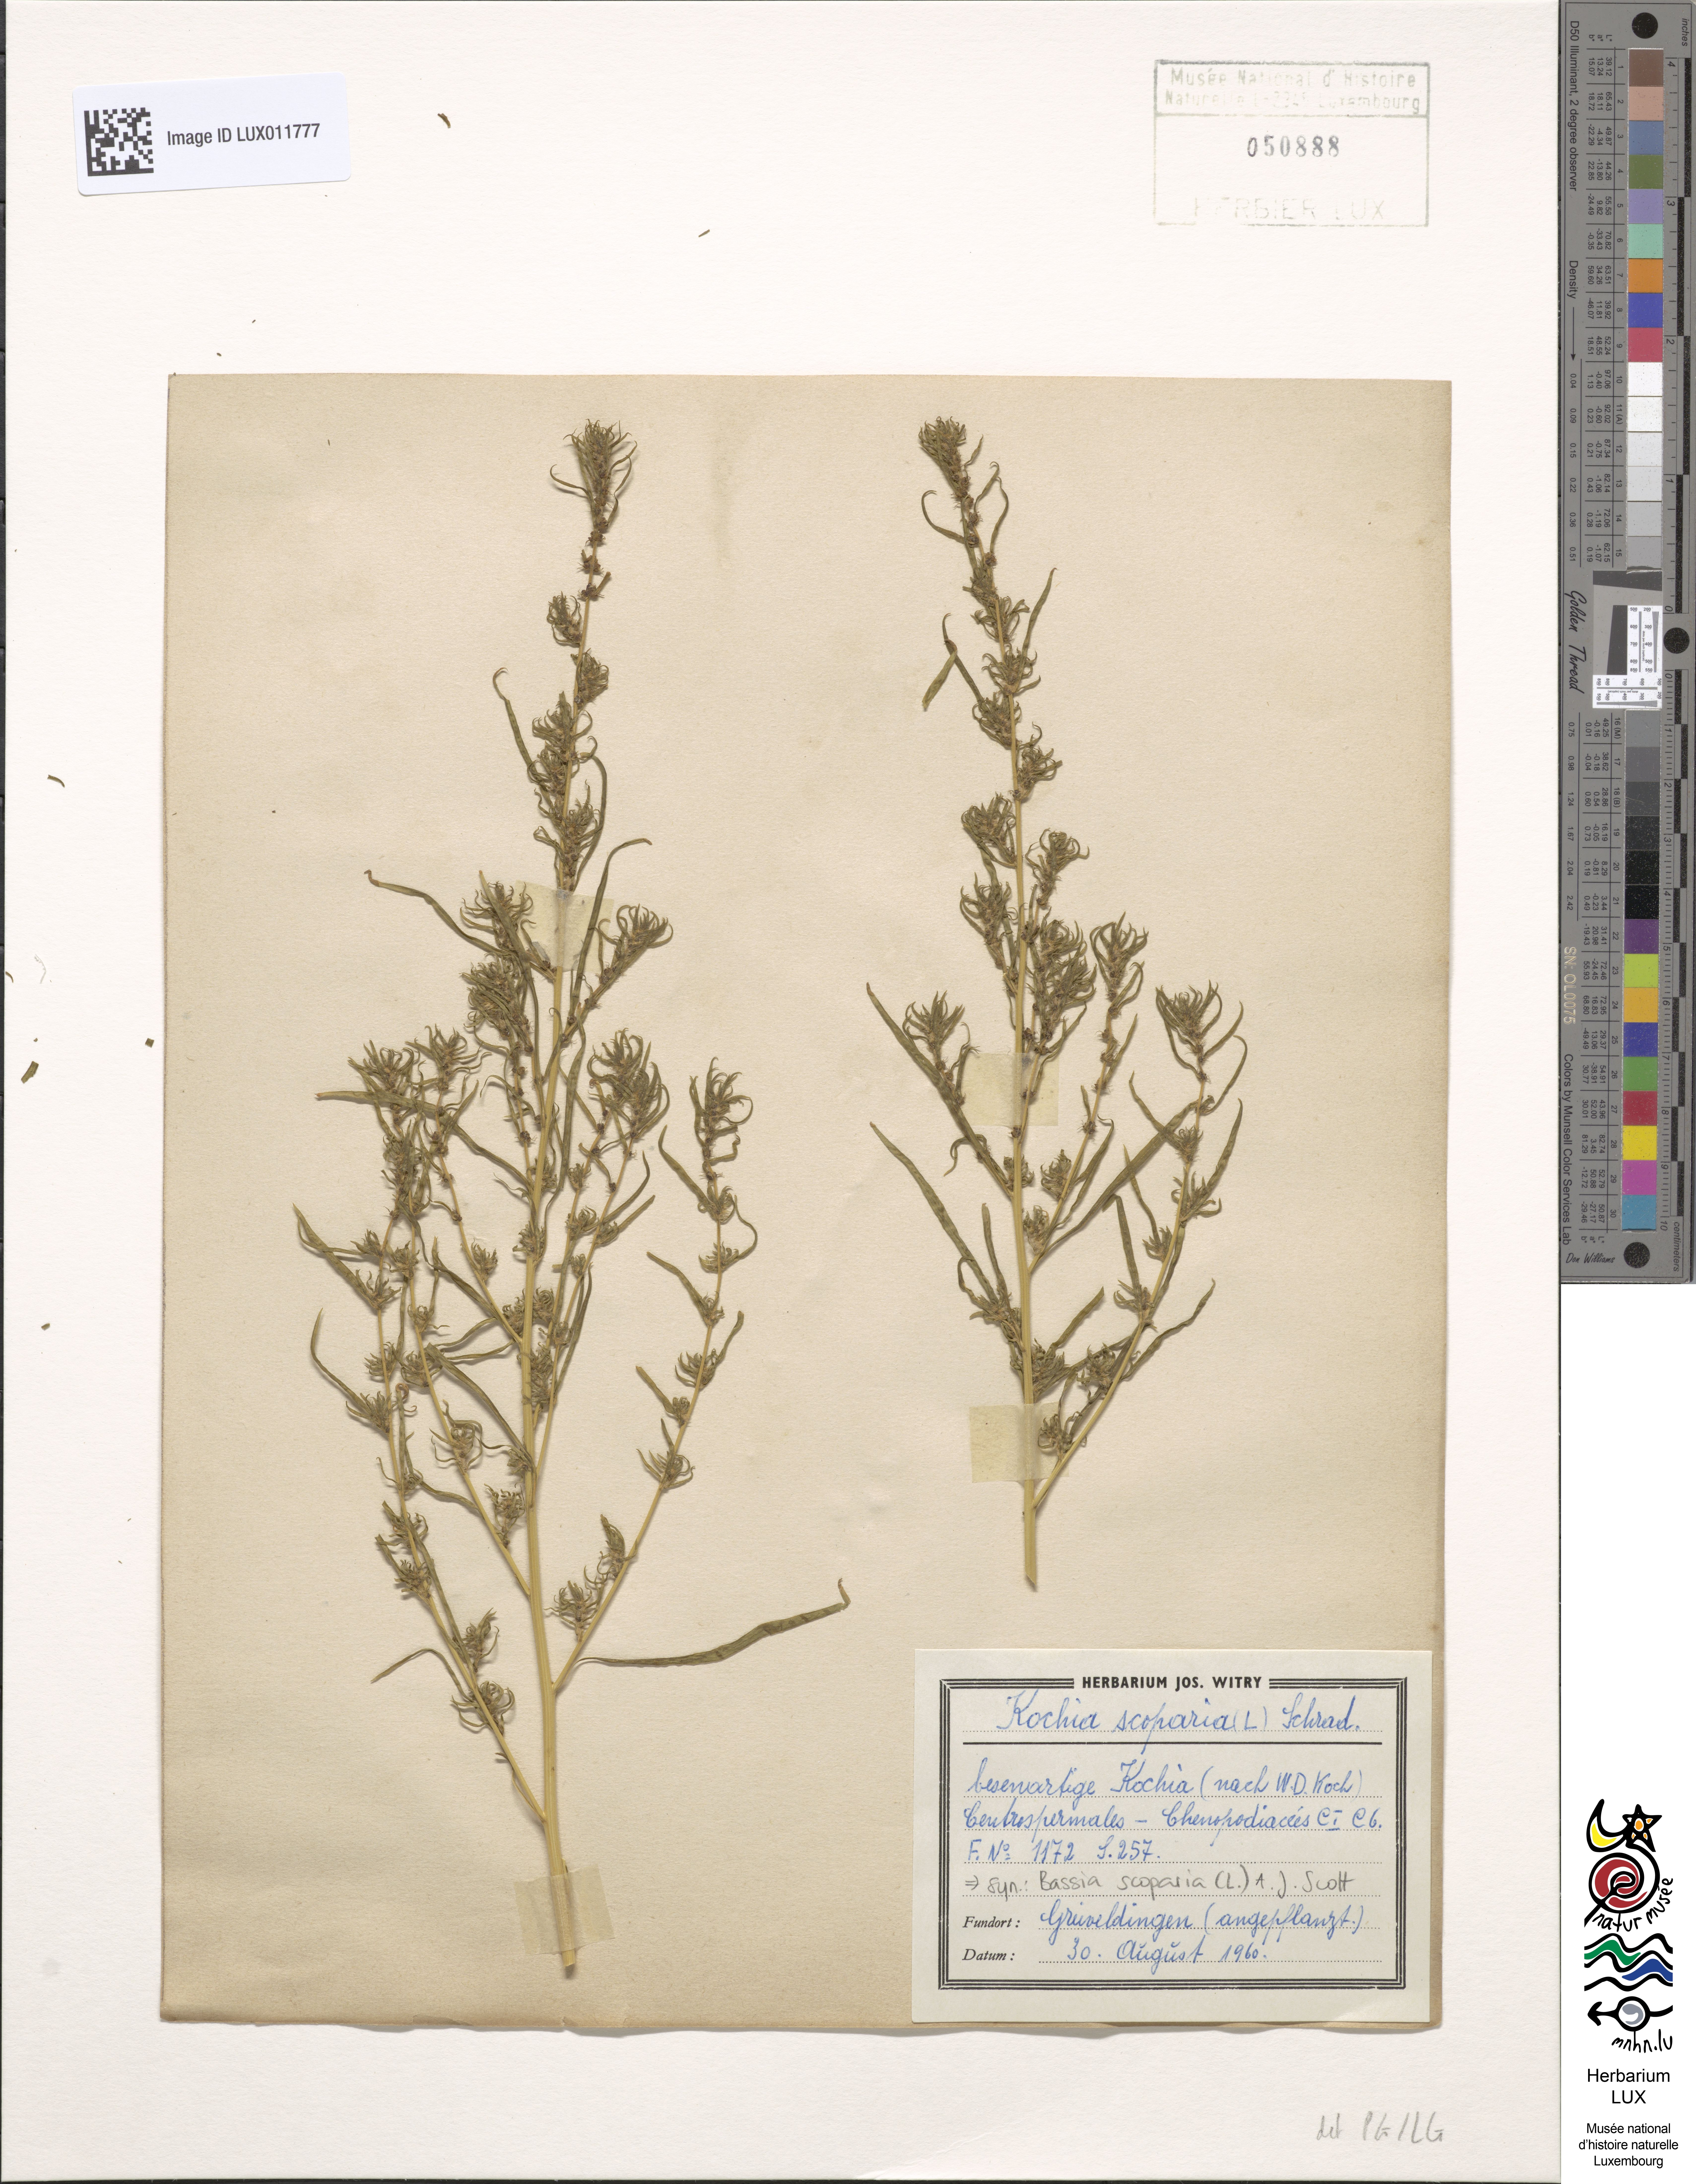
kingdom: Plantae
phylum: Tracheophyta
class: Magnoliopsida
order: Caryophyllales
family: Amaranthaceae
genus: Bassia
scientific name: Bassia scoparia
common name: Belvedere
